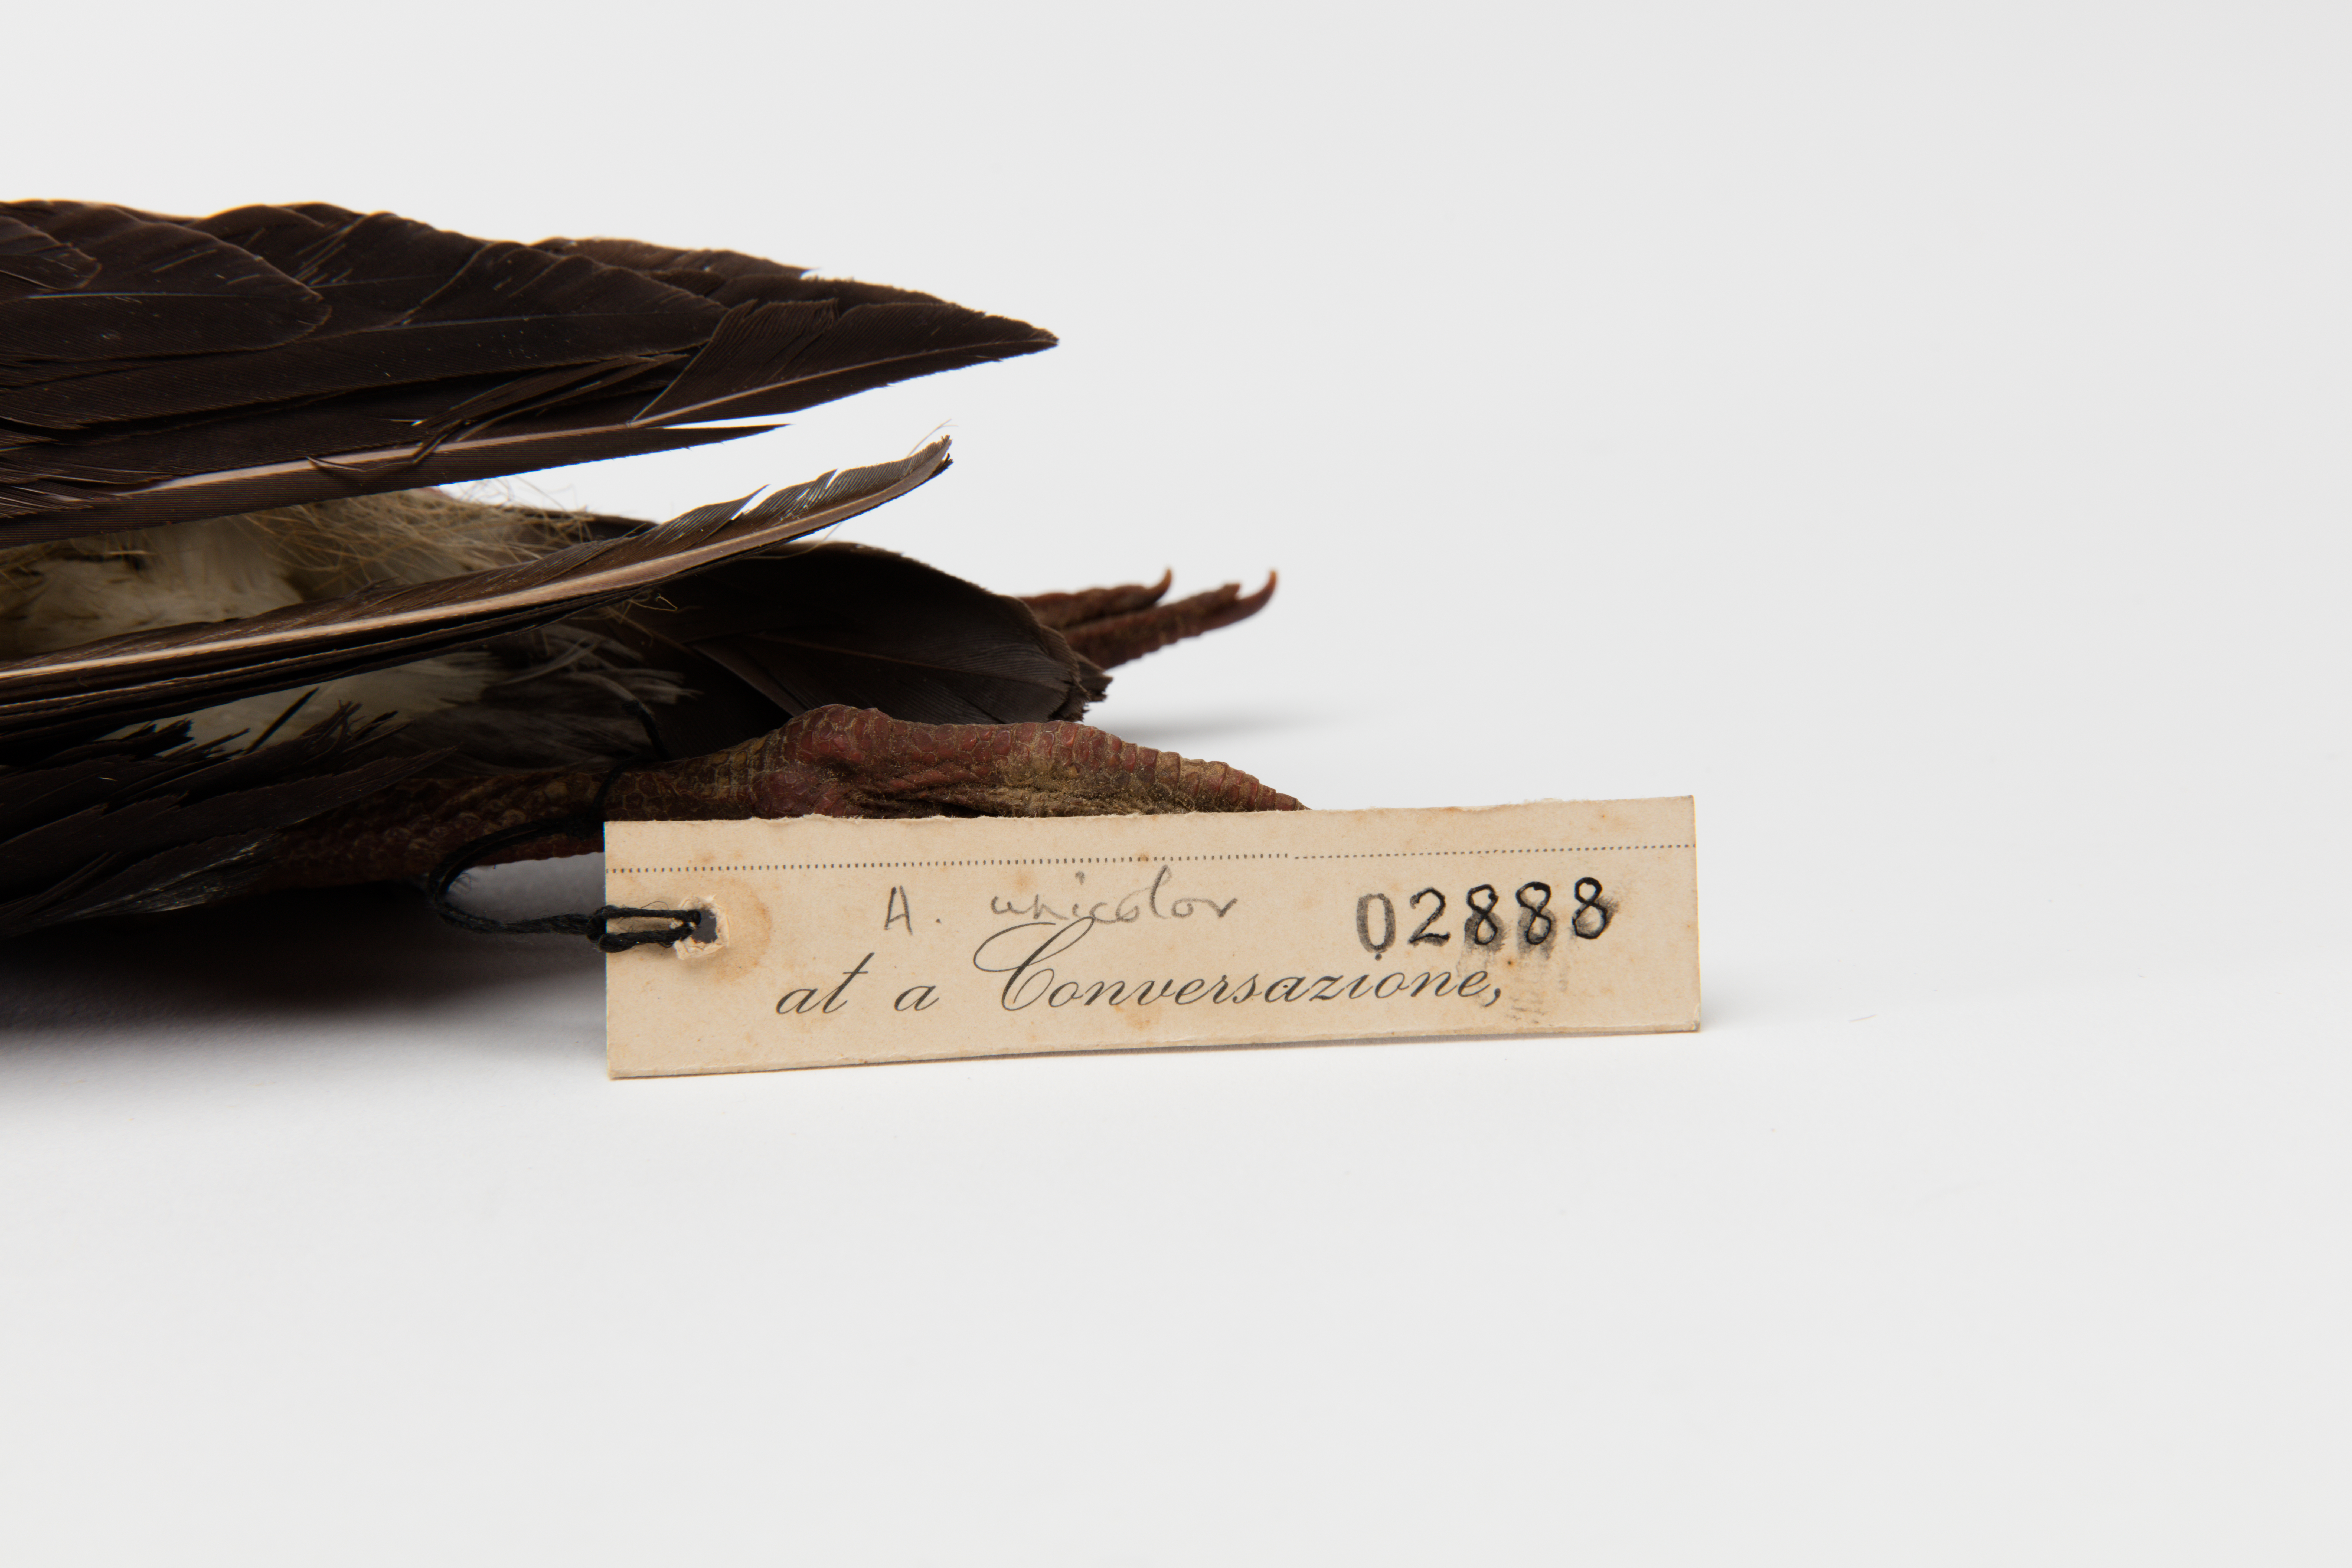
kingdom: Animalia
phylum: Chordata
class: Aves
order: Charadriiformes
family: Haematopodidae
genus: Haematopus
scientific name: Haematopus unicolor
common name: Variable oystercatcher
